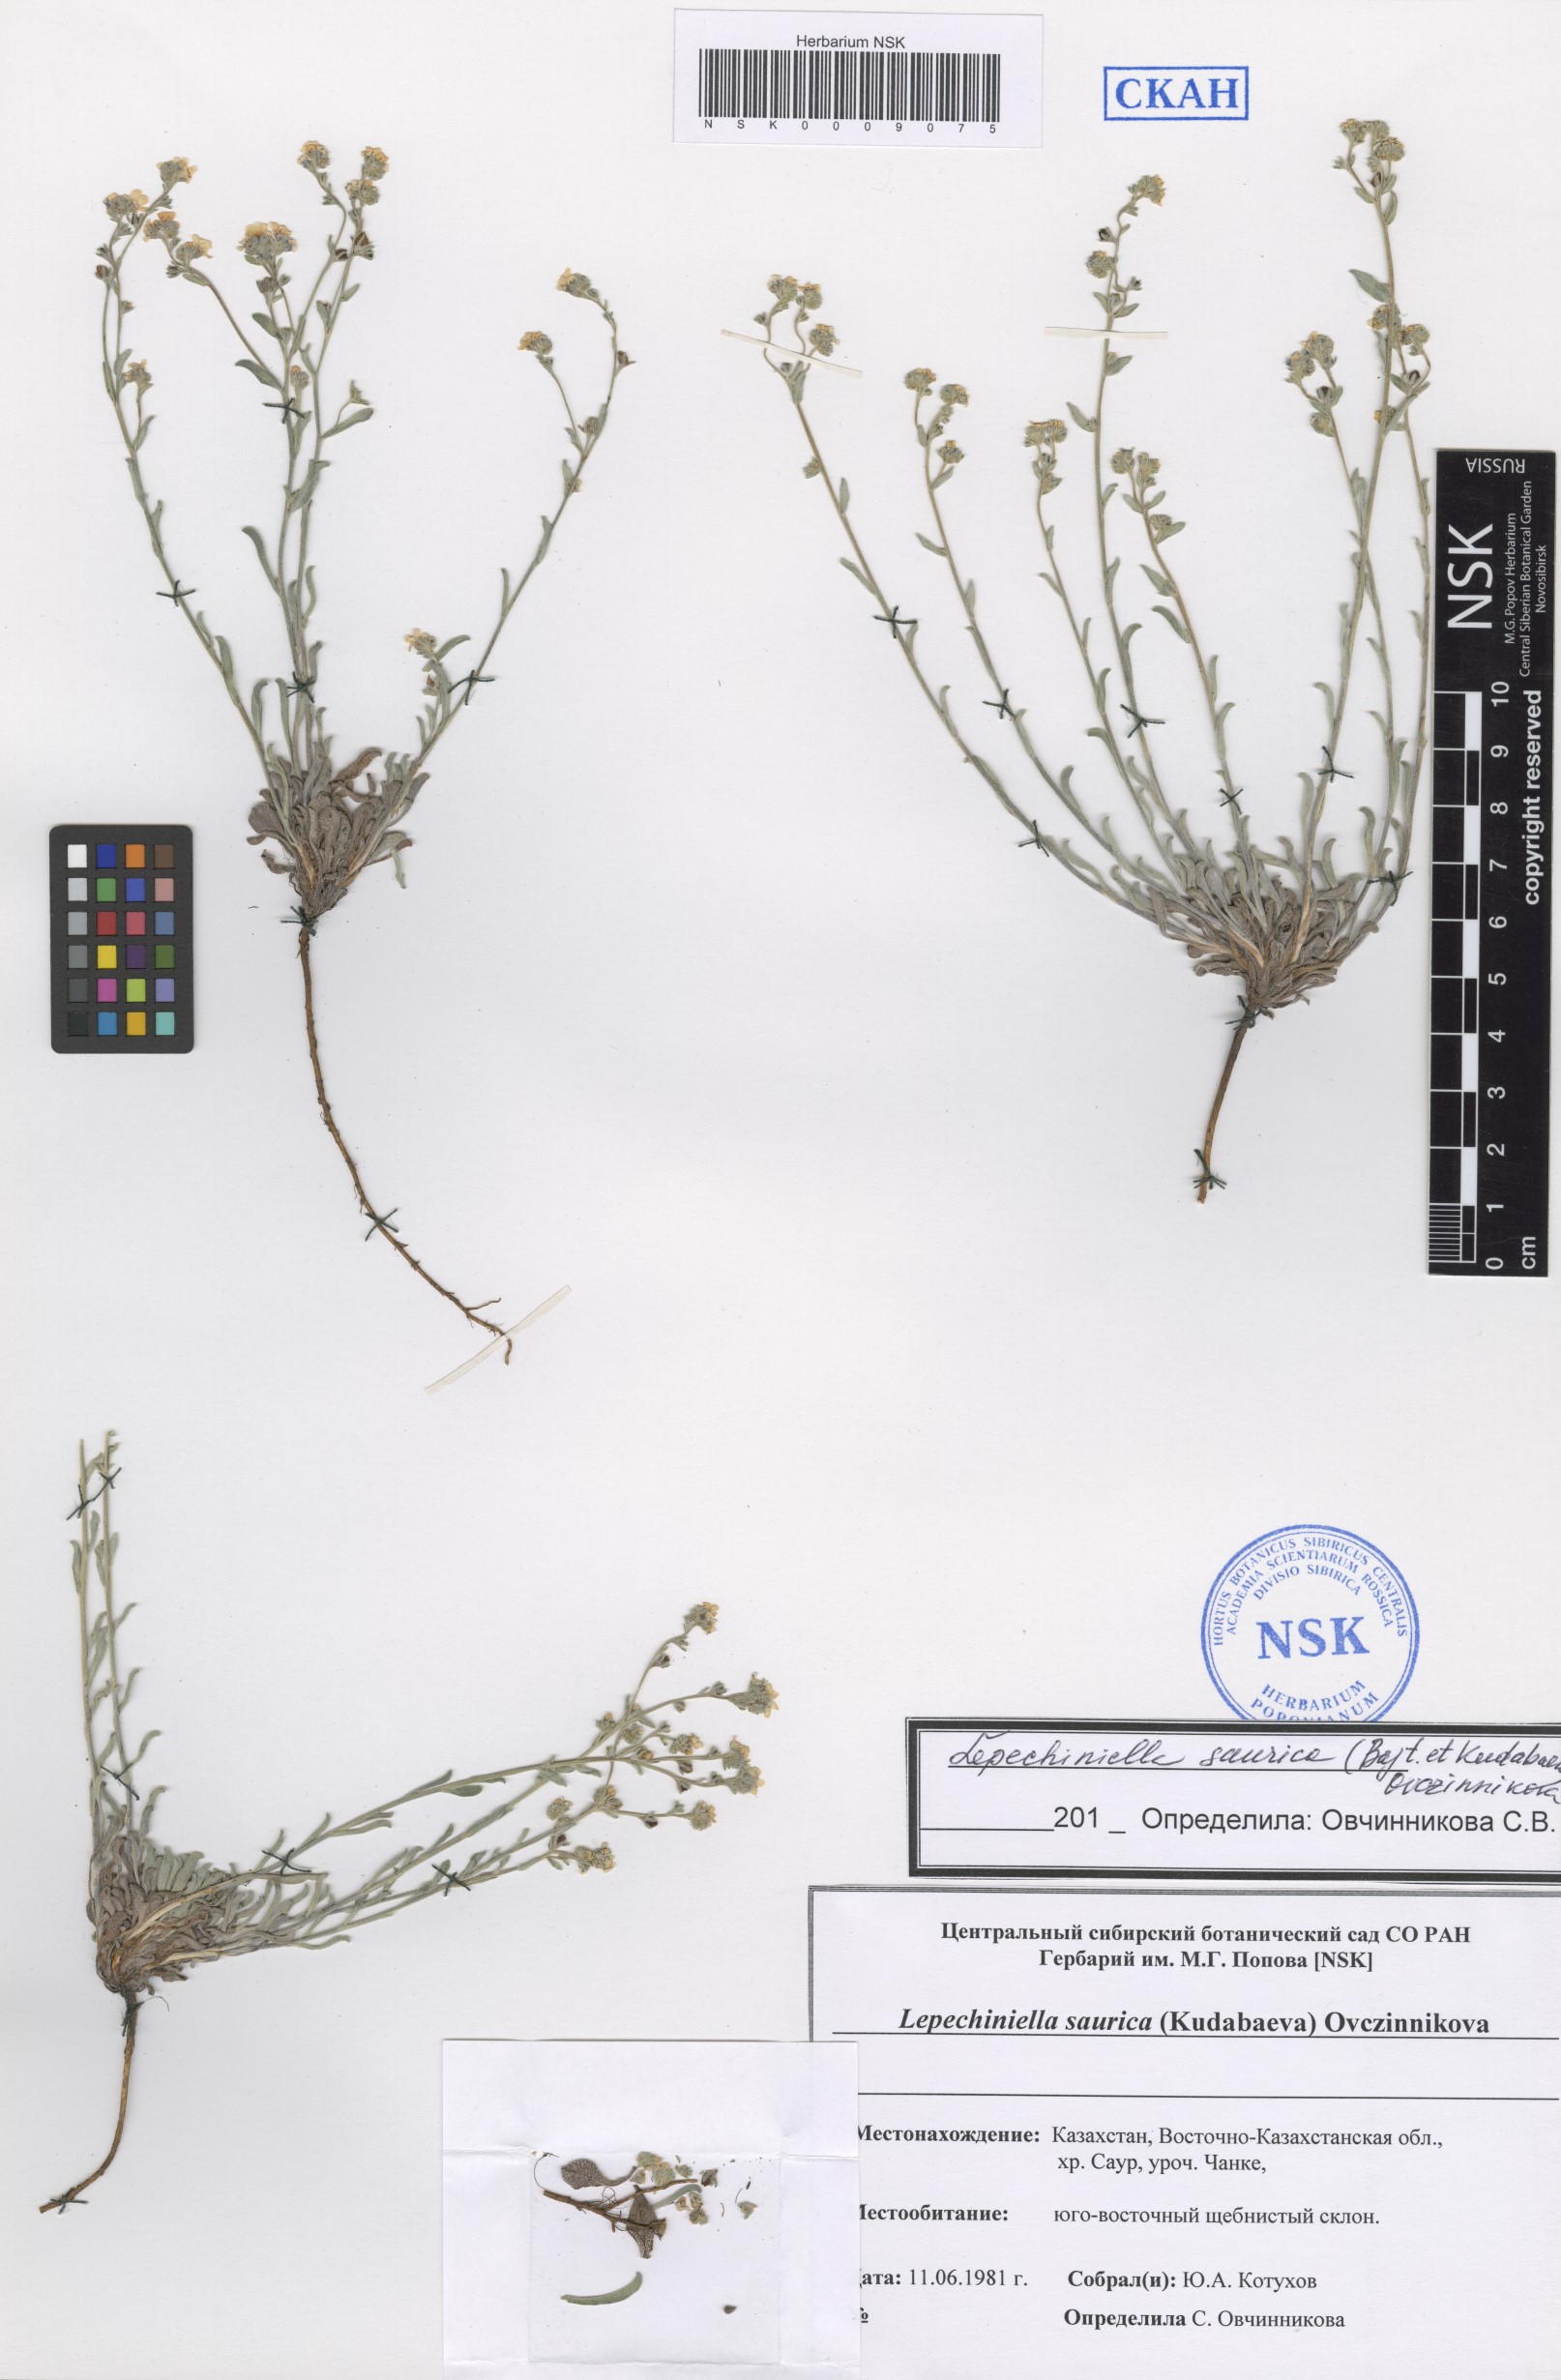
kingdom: Plantae
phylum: Tracheophyta
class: Magnoliopsida
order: Boraginales
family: Boraginaceae
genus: Lepechiniella
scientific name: Lepechiniella saurica
